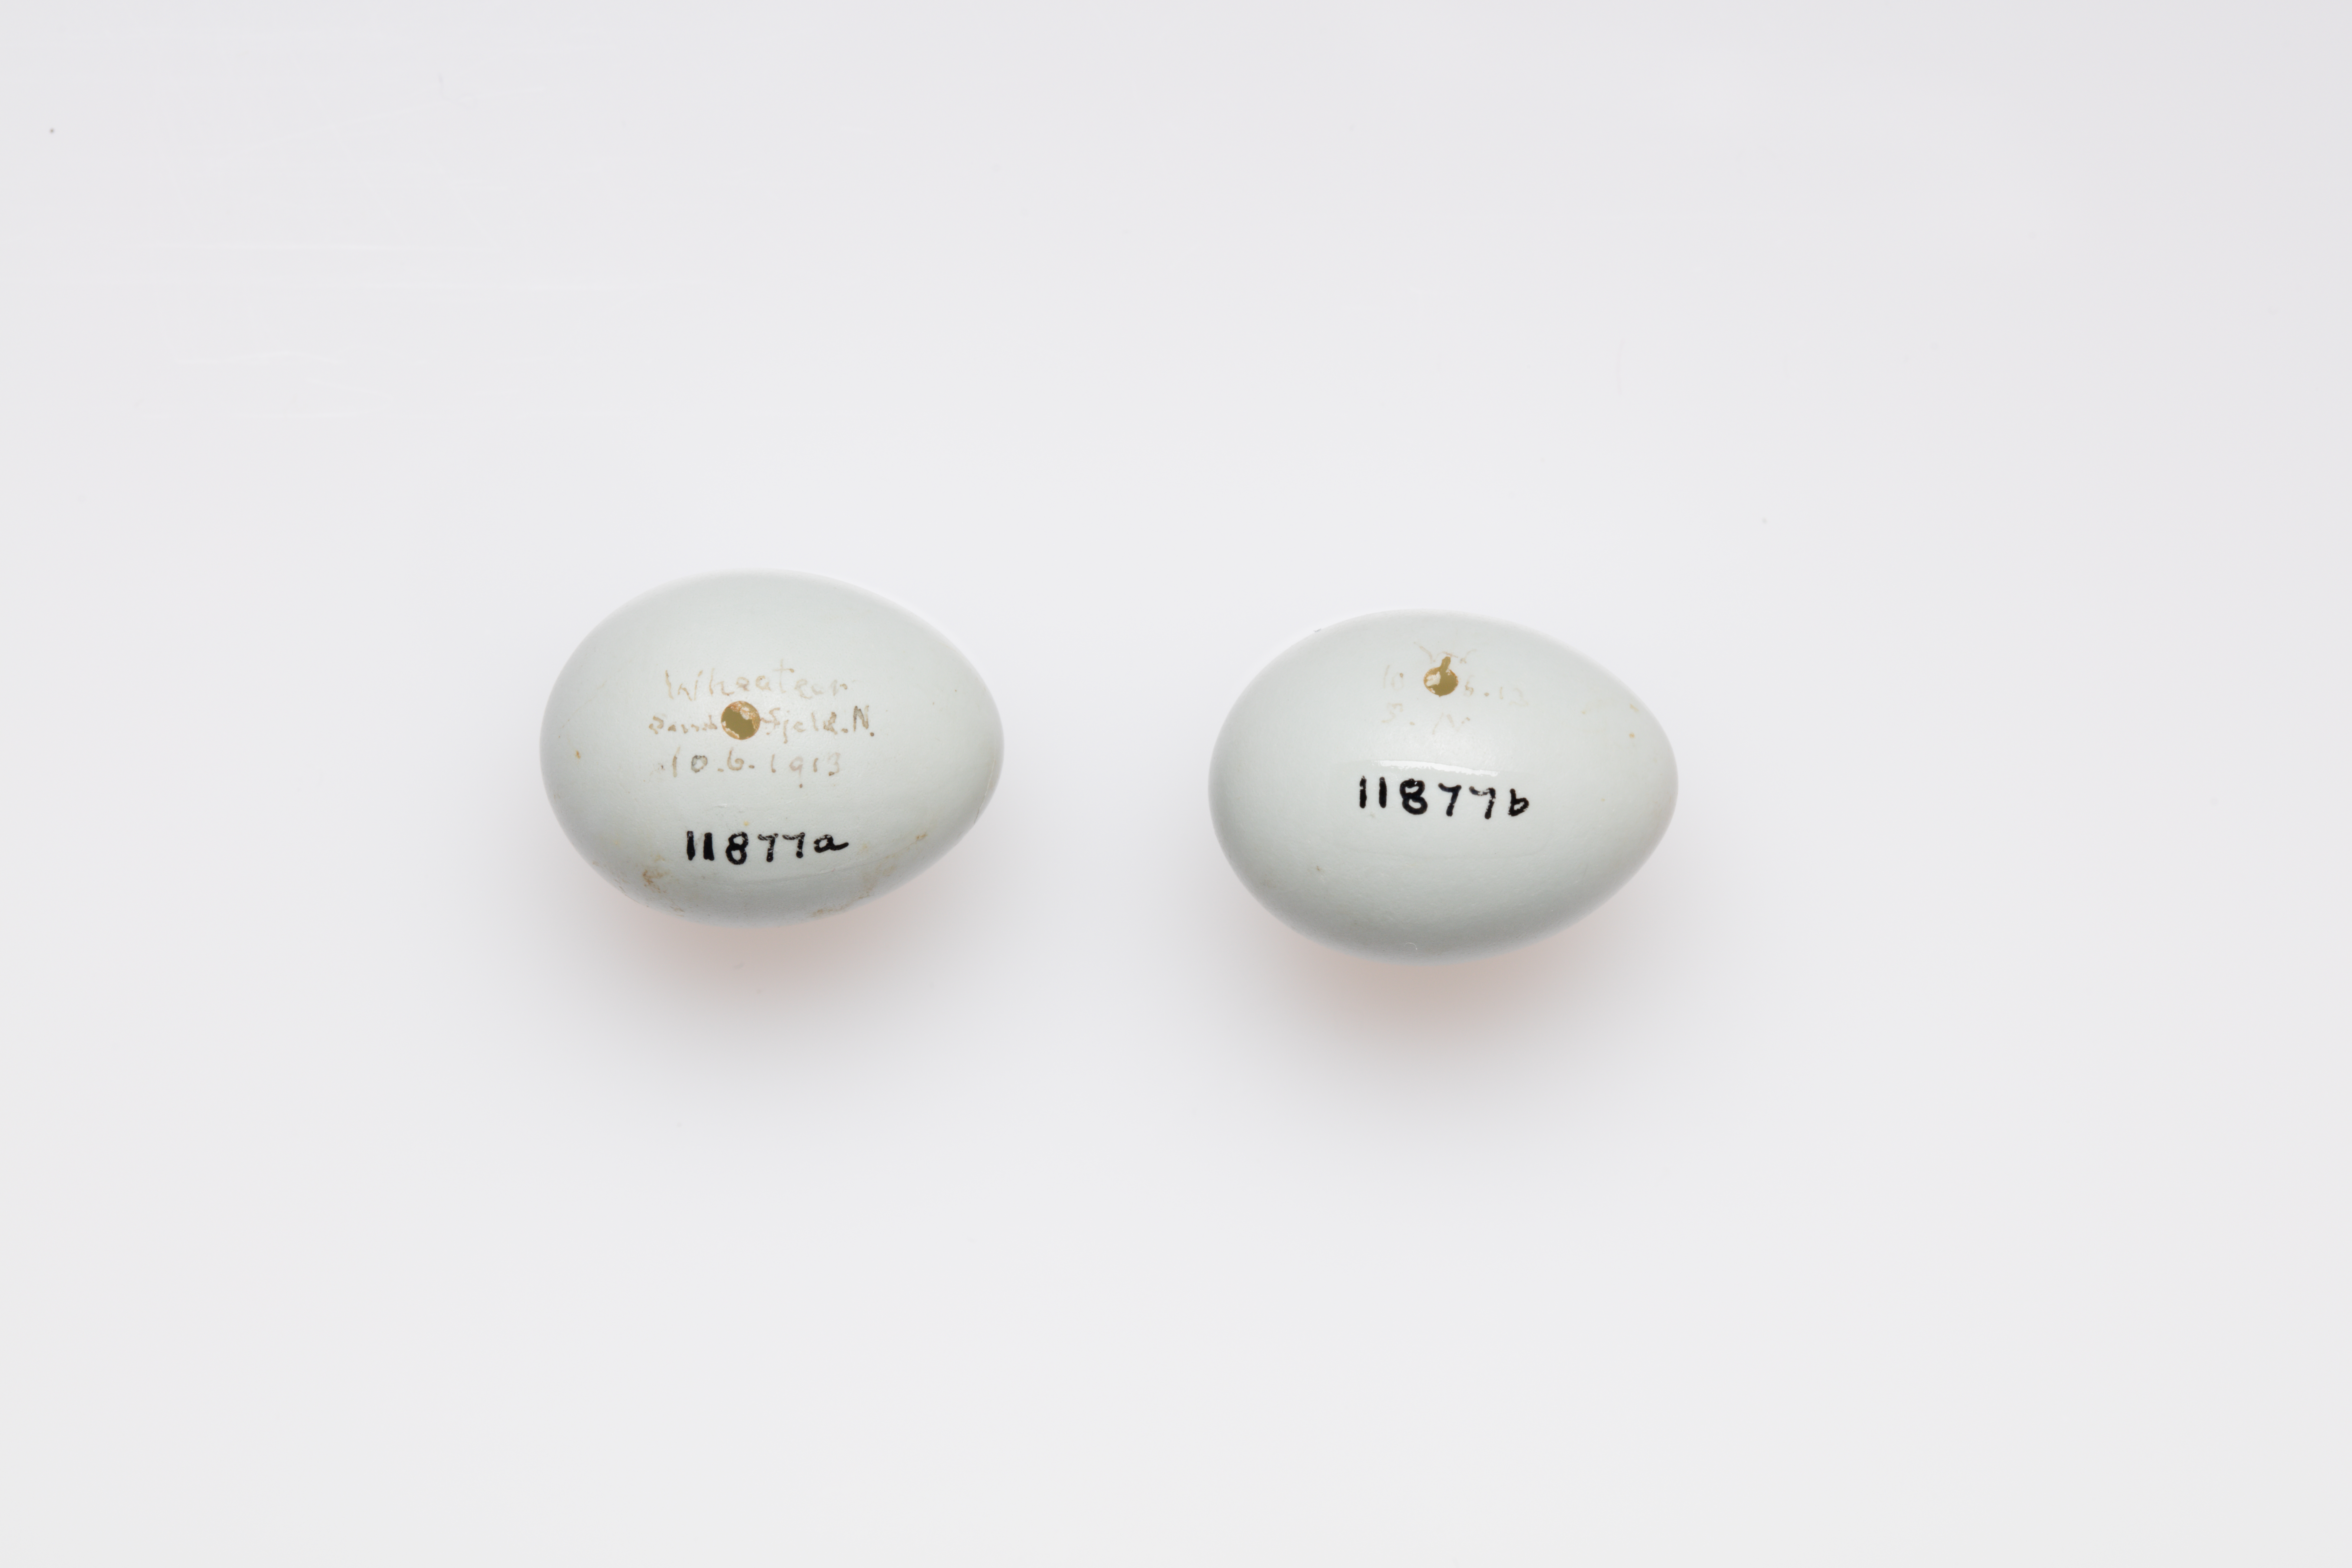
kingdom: Animalia
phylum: Chordata
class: Aves
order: Passeriformes
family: Muscicapidae
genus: Oenanthe
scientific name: Oenanthe oenanthe
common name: Northern wheatear
